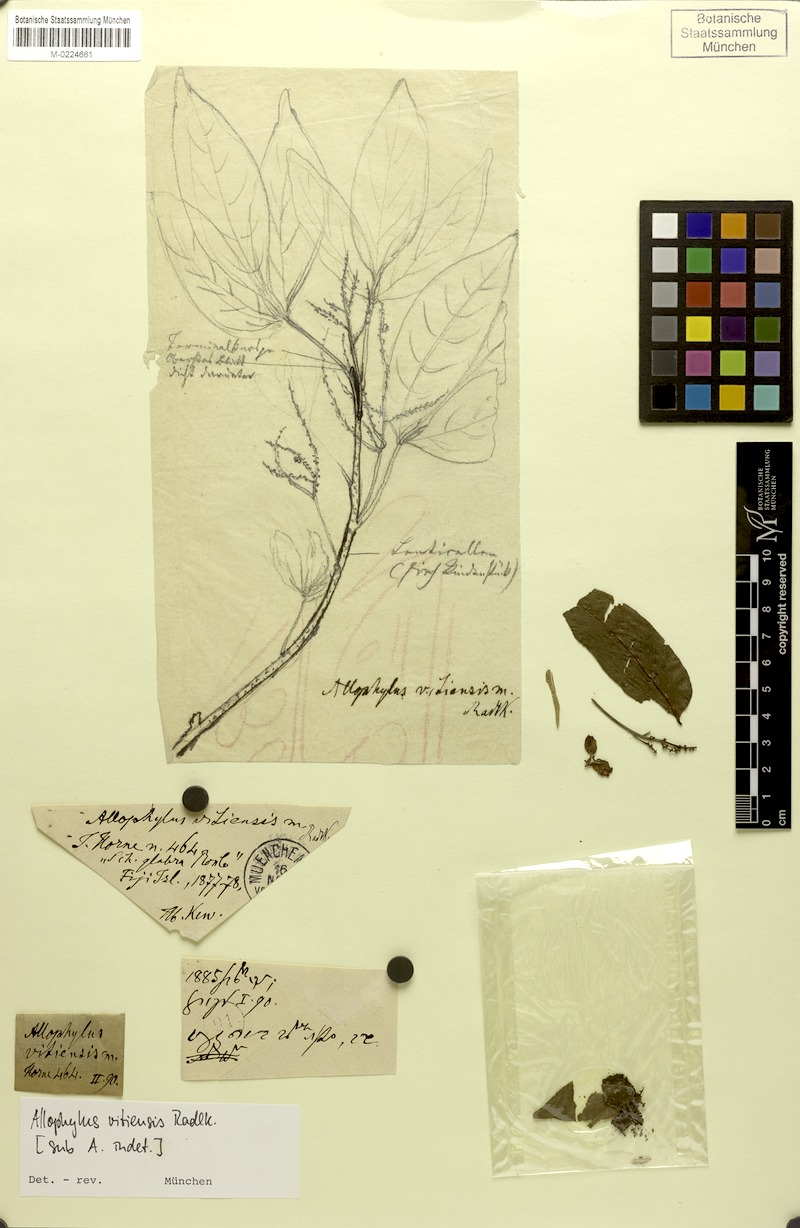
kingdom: Plantae
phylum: Tracheophyta
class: Magnoliopsida
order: Sapindales
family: Sapindaceae
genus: Allophylus
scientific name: Allophylus timorensis
